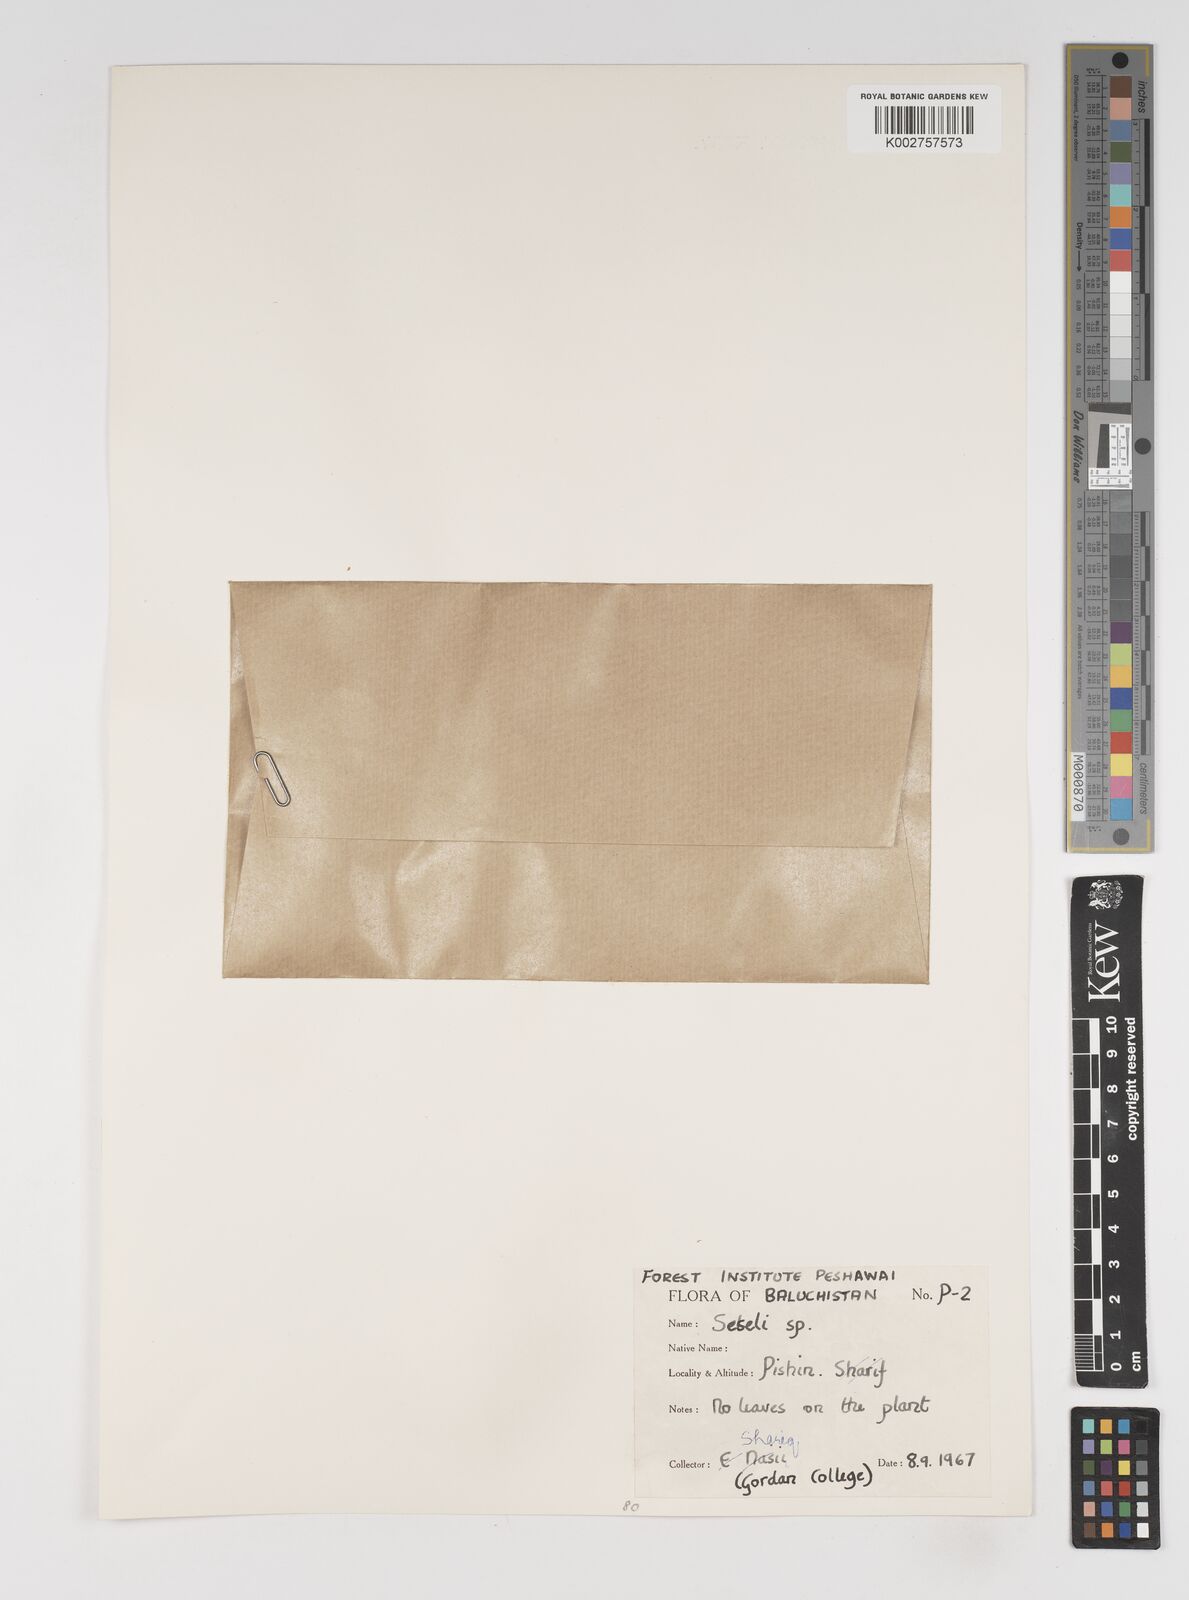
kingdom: Plantae
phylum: Tracheophyta
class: Magnoliopsida
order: Apiales
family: Apiaceae
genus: Seseli
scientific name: Seseli
